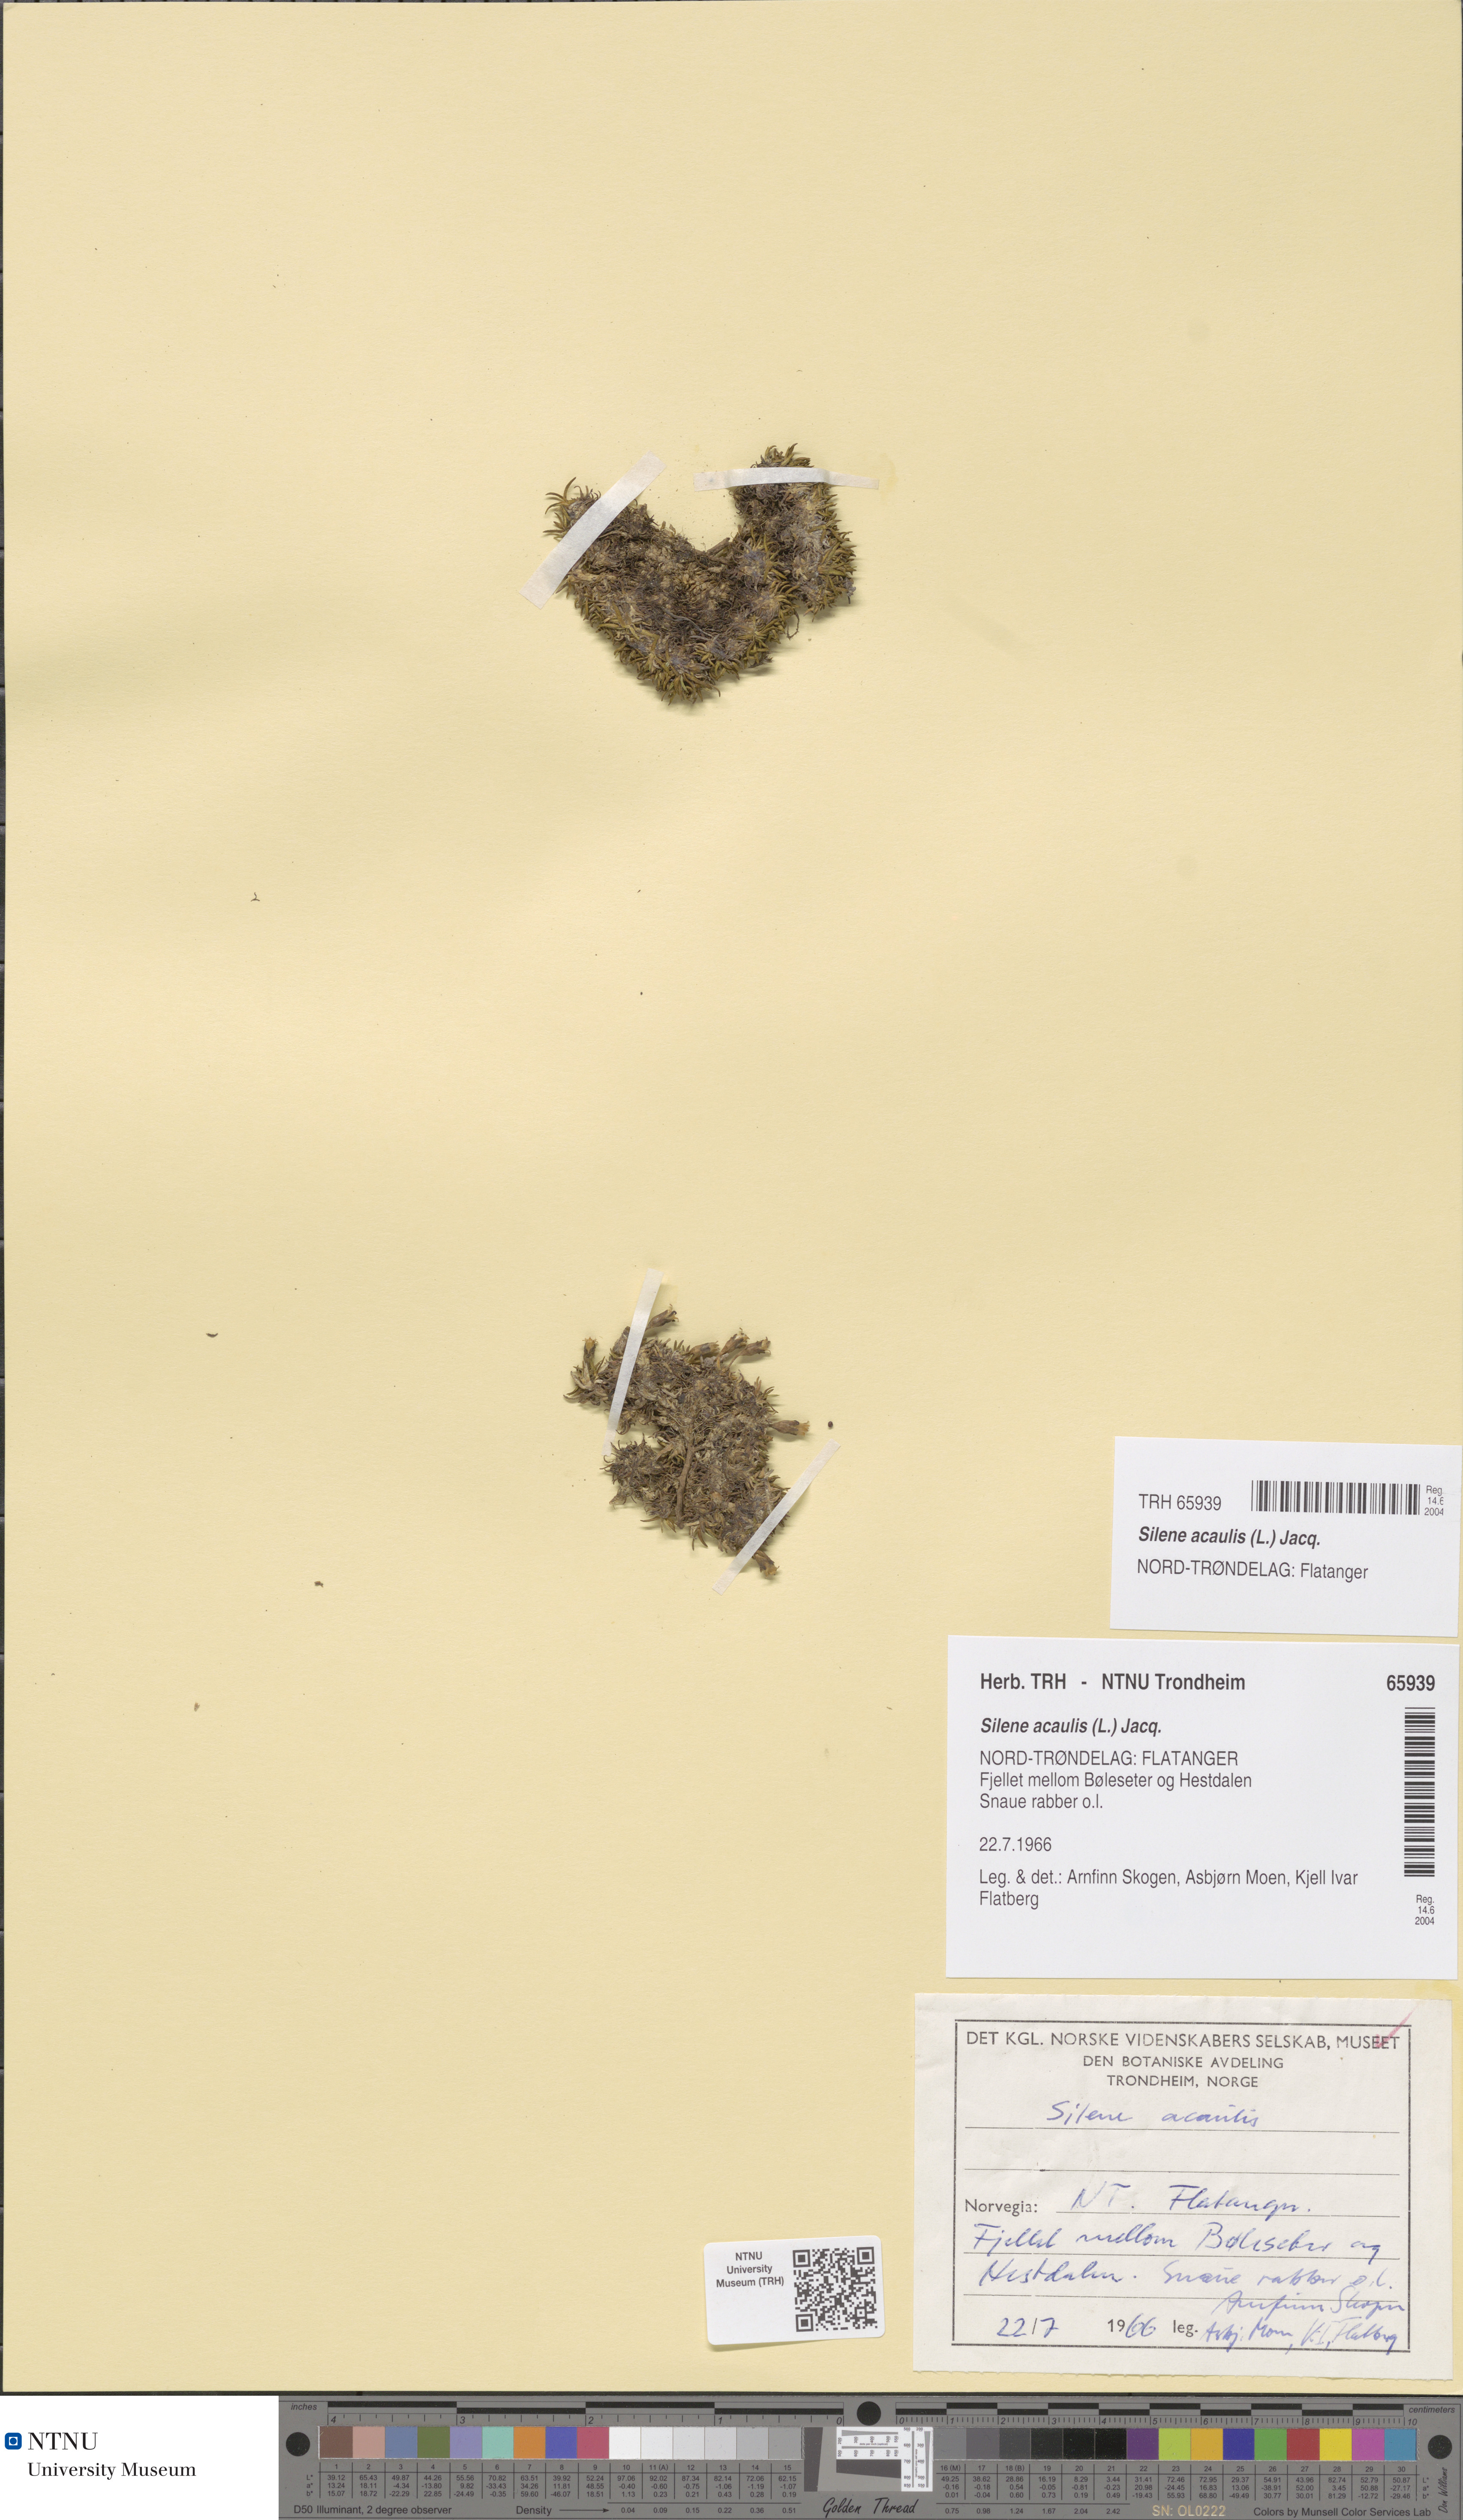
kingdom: Plantae
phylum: Tracheophyta
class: Magnoliopsida
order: Caryophyllales
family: Caryophyllaceae
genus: Silene
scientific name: Silene acaulis
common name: Moss campion
